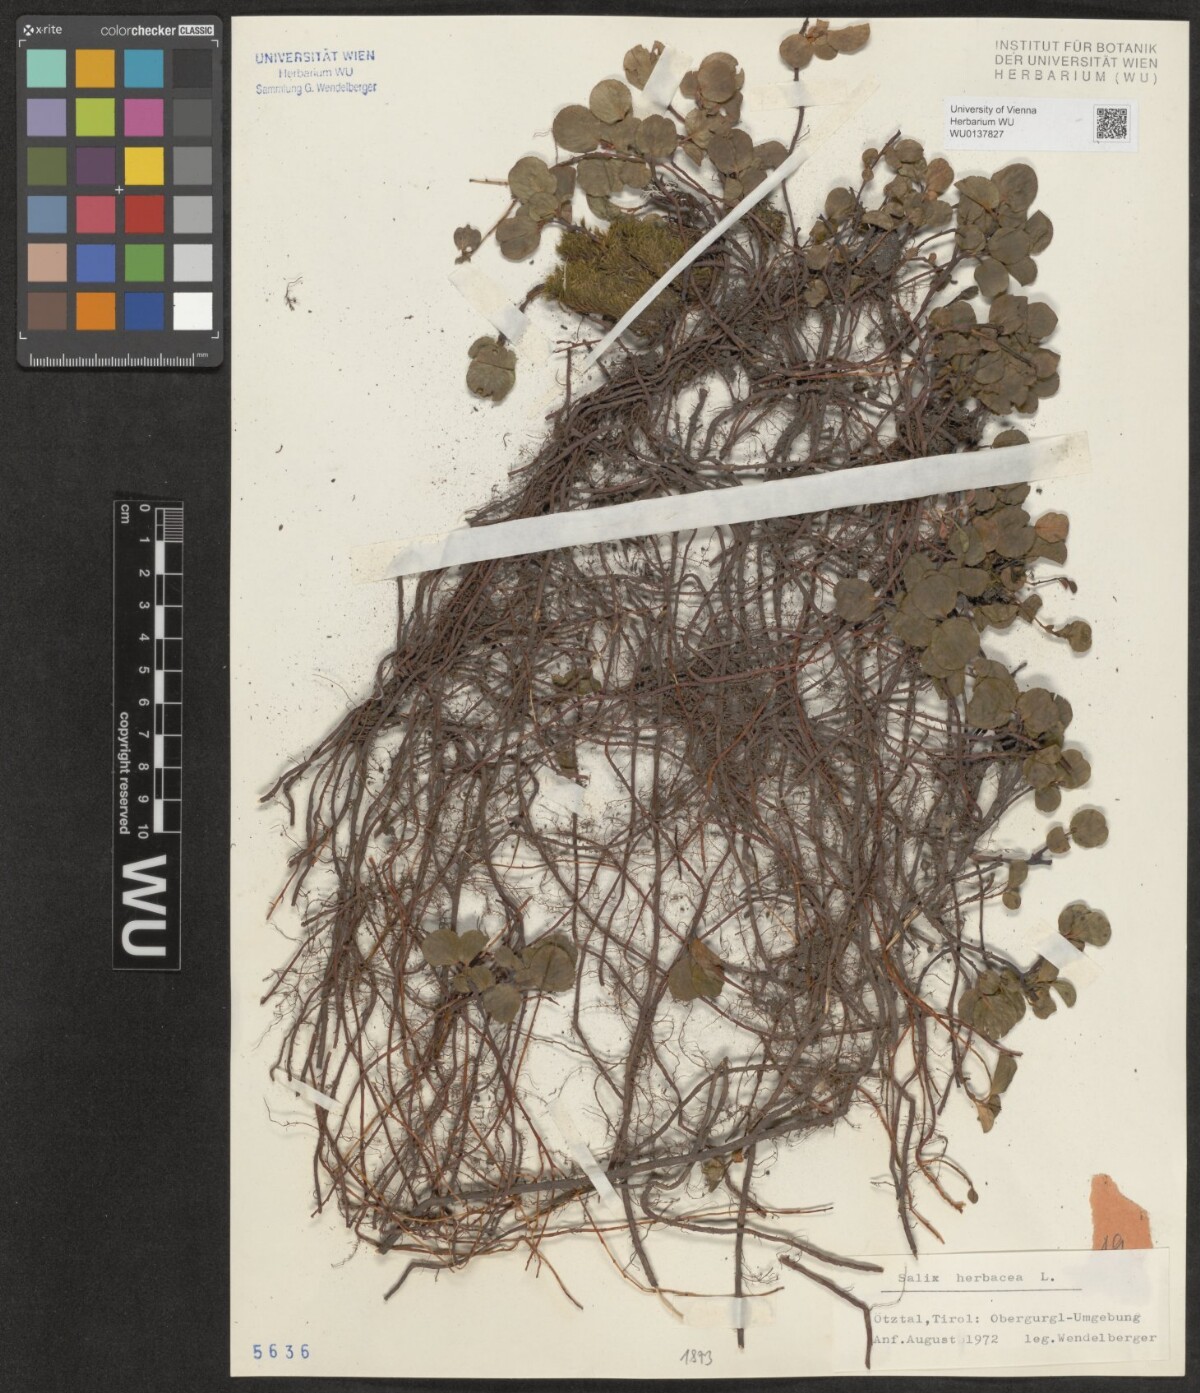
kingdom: Plantae
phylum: Tracheophyta
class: Magnoliopsida
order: Malpighiales
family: Salicaceae
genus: Salix
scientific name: Salix herbacea
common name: Dwarf willow
